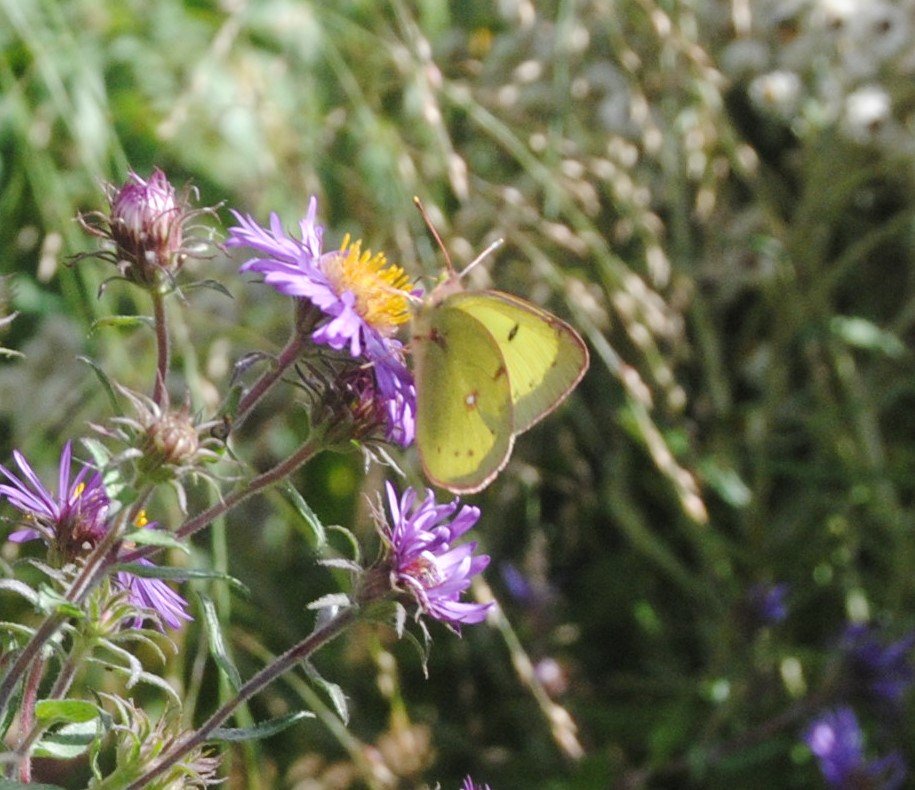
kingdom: Animalia
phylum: Arthropoda
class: Insecta
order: Lepidoptera
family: Pieridae
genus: Colias
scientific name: Colias philodice
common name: Clouded Sulphur
